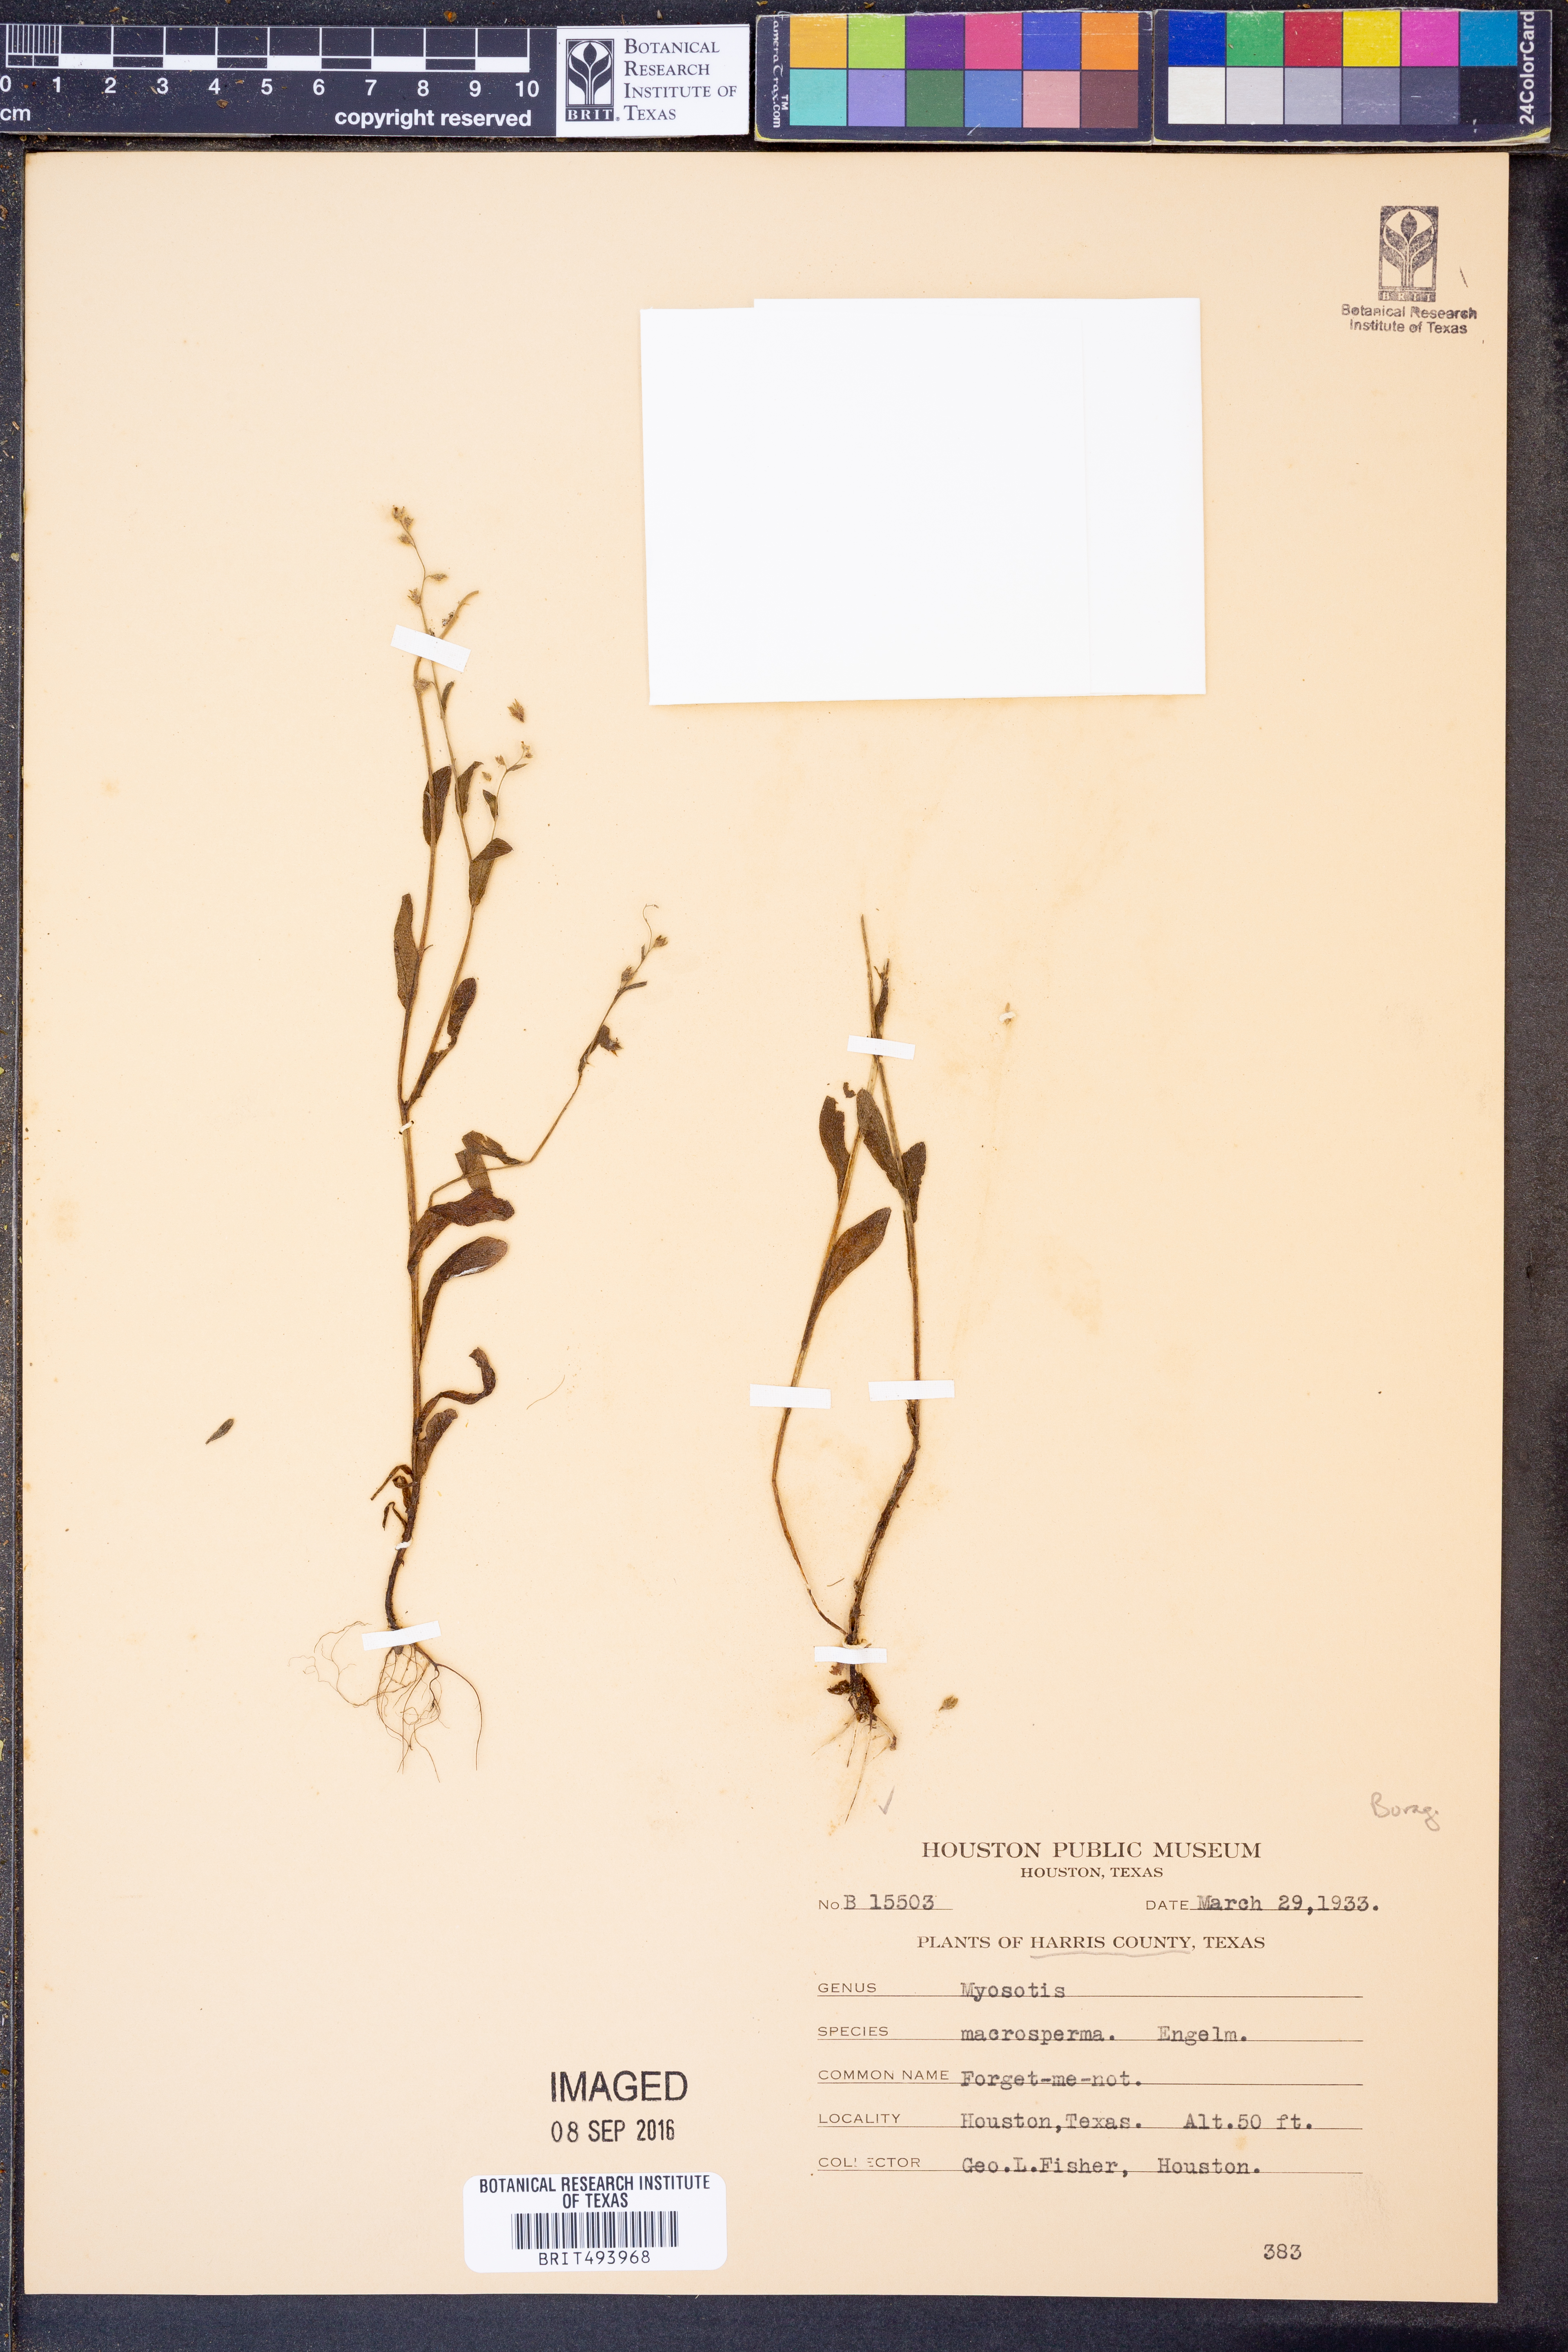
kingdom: Plantae
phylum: Tracheophyta
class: Magnoliopsida
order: Boraginales
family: Boraginaceae
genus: Myosotis
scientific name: Myosotis macrosperma
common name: Large-seed forget-me-not
